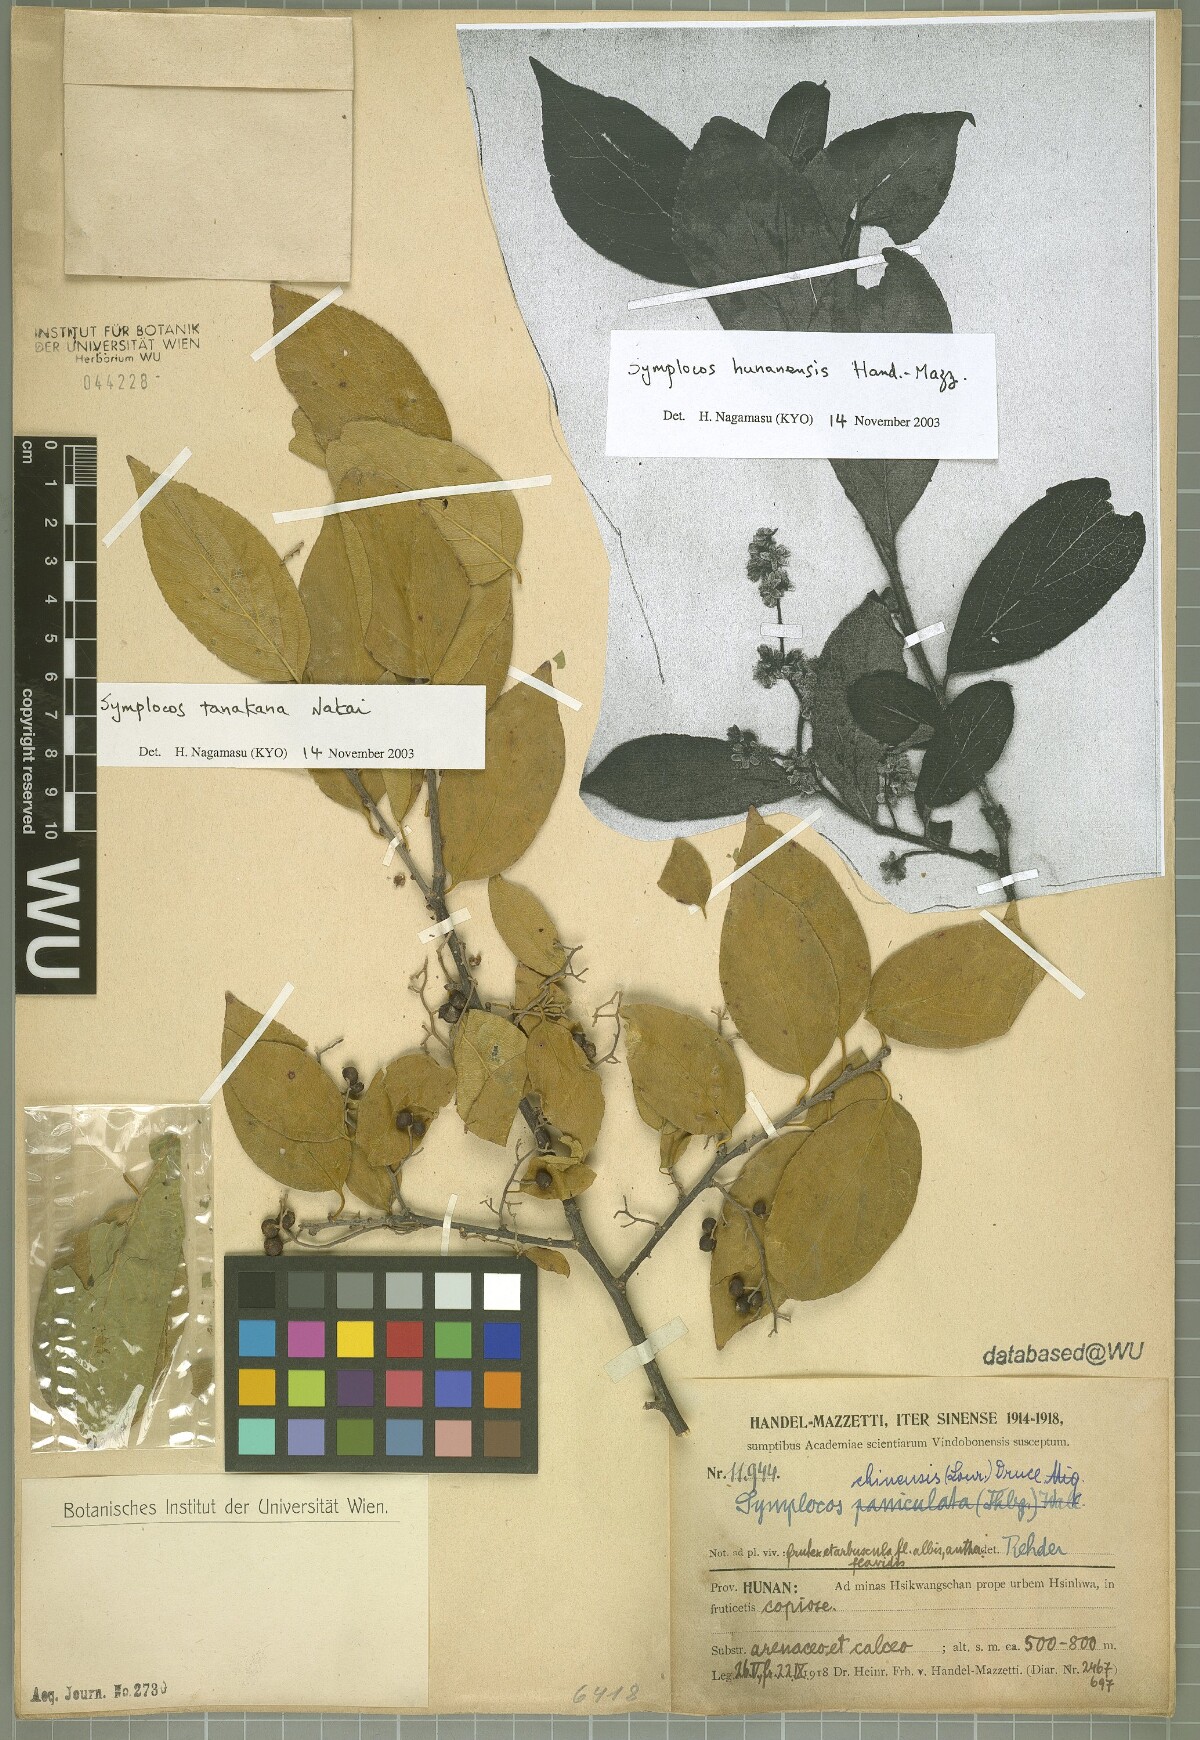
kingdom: Plantae
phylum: Tracheophyta
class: Magnoliopsida
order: Ericales
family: Symplocaceae
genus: Symplocos
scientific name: Symplocos tanakana
